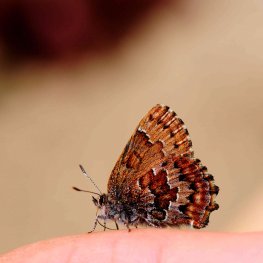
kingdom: Animalia
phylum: Arthropoda
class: Insecta
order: Lepidoptera
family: Lycaenidae
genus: Incisalia
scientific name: Incisalia niphon
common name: Eastern Pine Elfin
